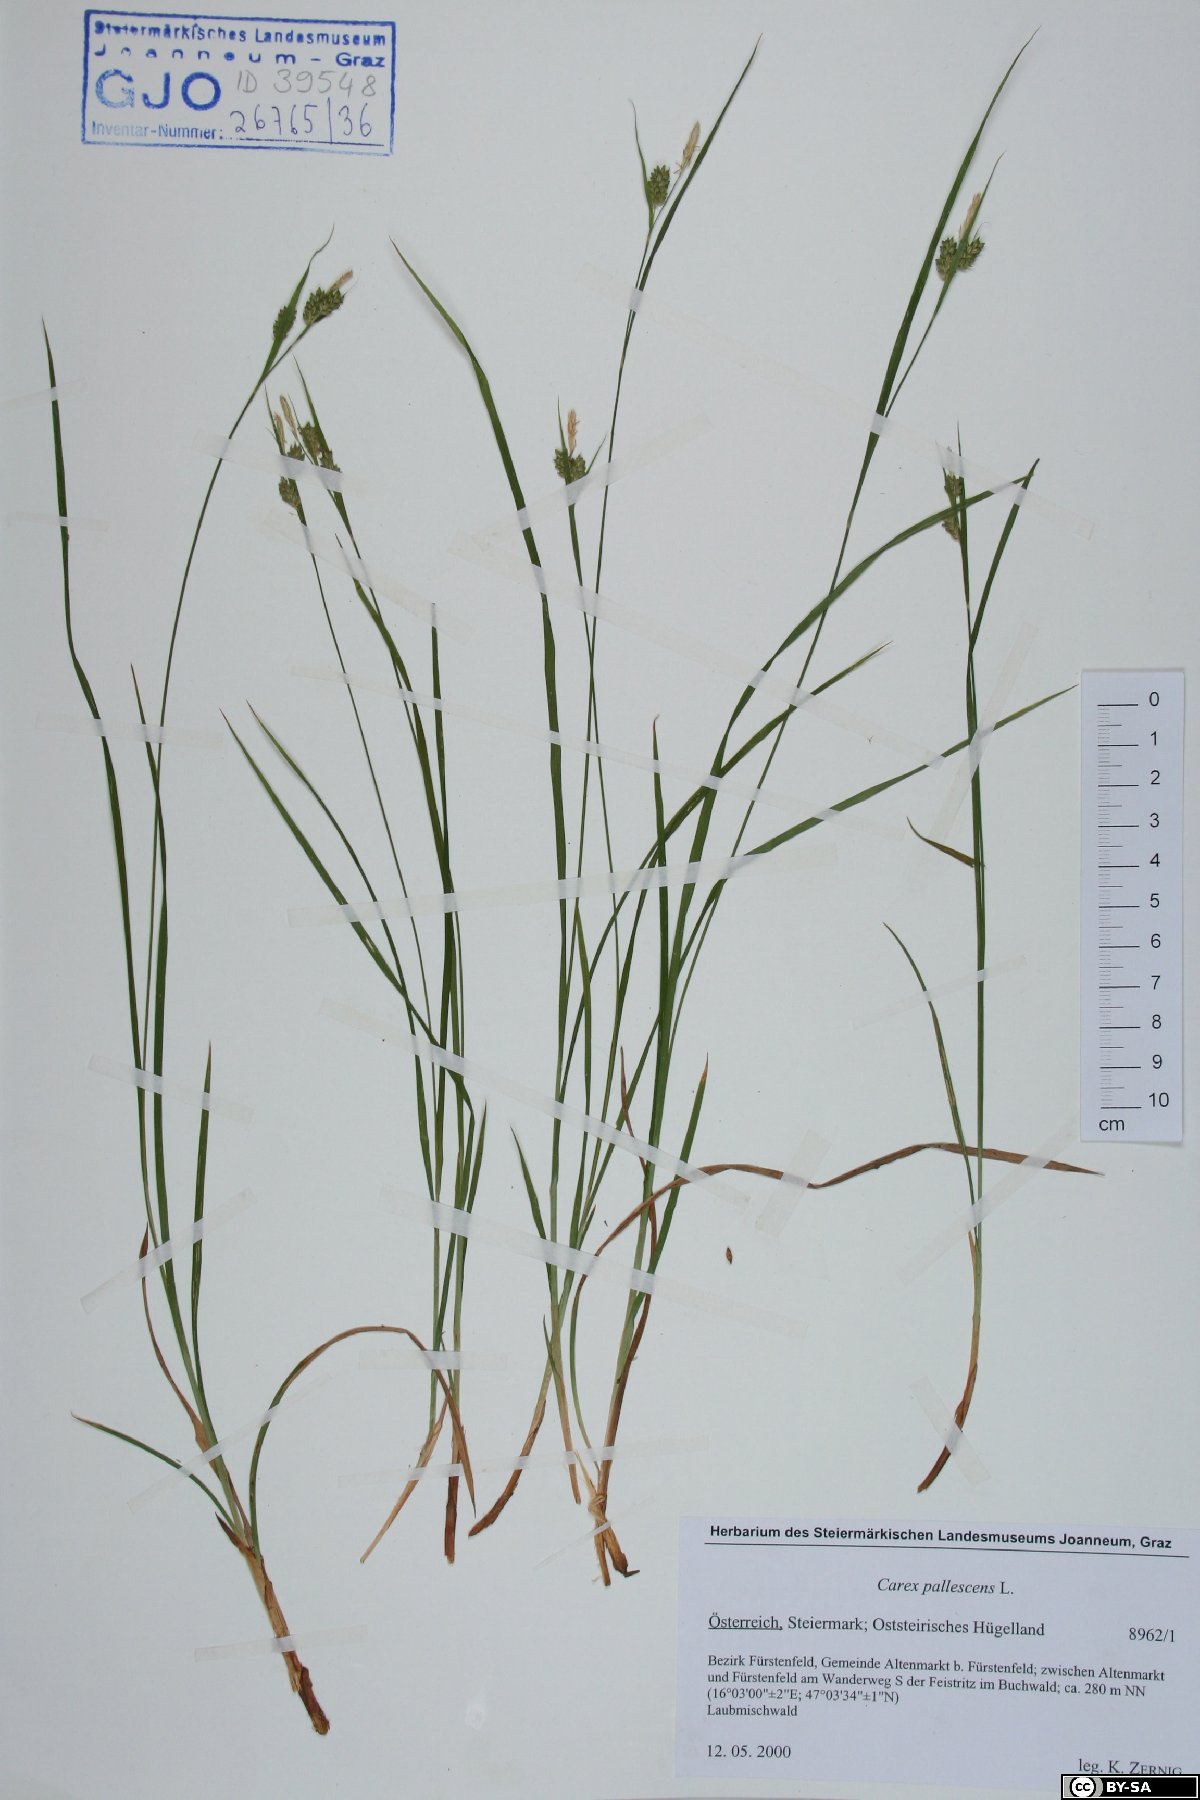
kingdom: Plantae
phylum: Tracheophyta
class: Liliopsida
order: Poales
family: Cyperaceae
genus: Carex
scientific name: Carex pallescens
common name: Pale sedge
